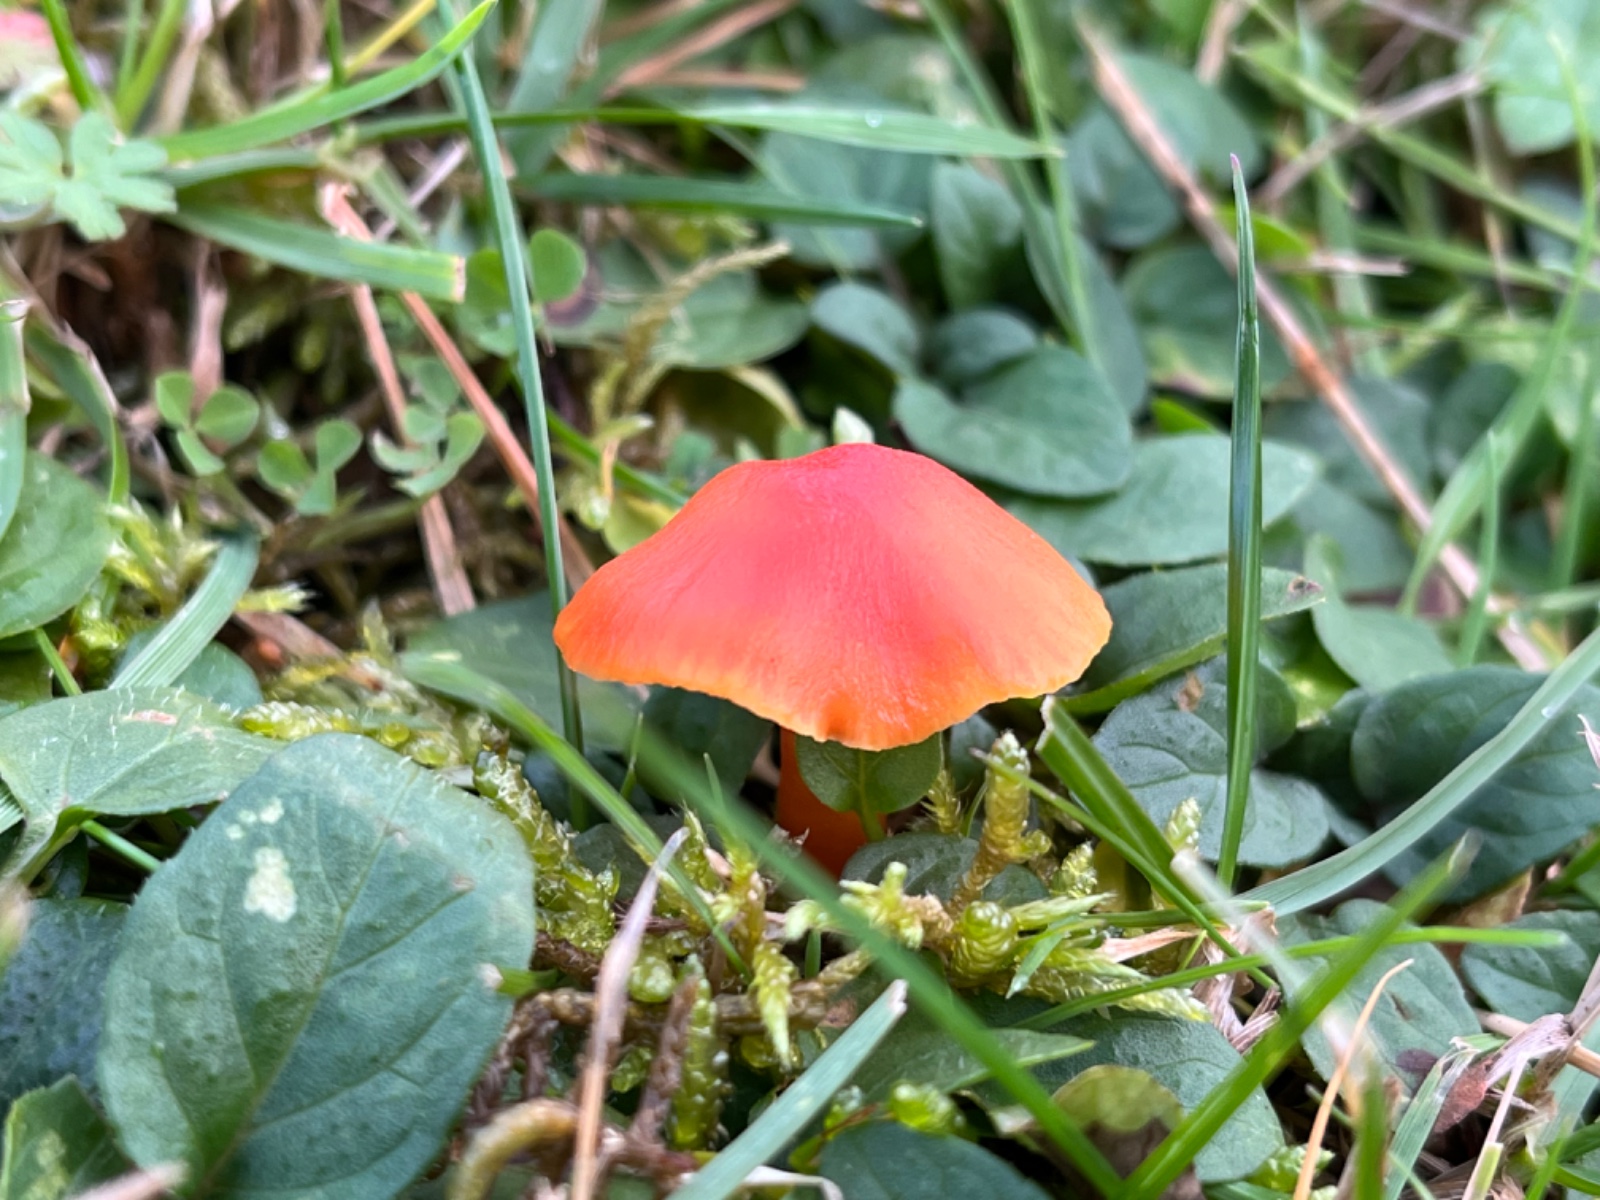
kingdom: Fungi
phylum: Basidiomycota
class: Agaricomycetes
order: Agaricales
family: Hygrophoraceae
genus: Hygrocybe
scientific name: Hygrocybe
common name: vokshat
